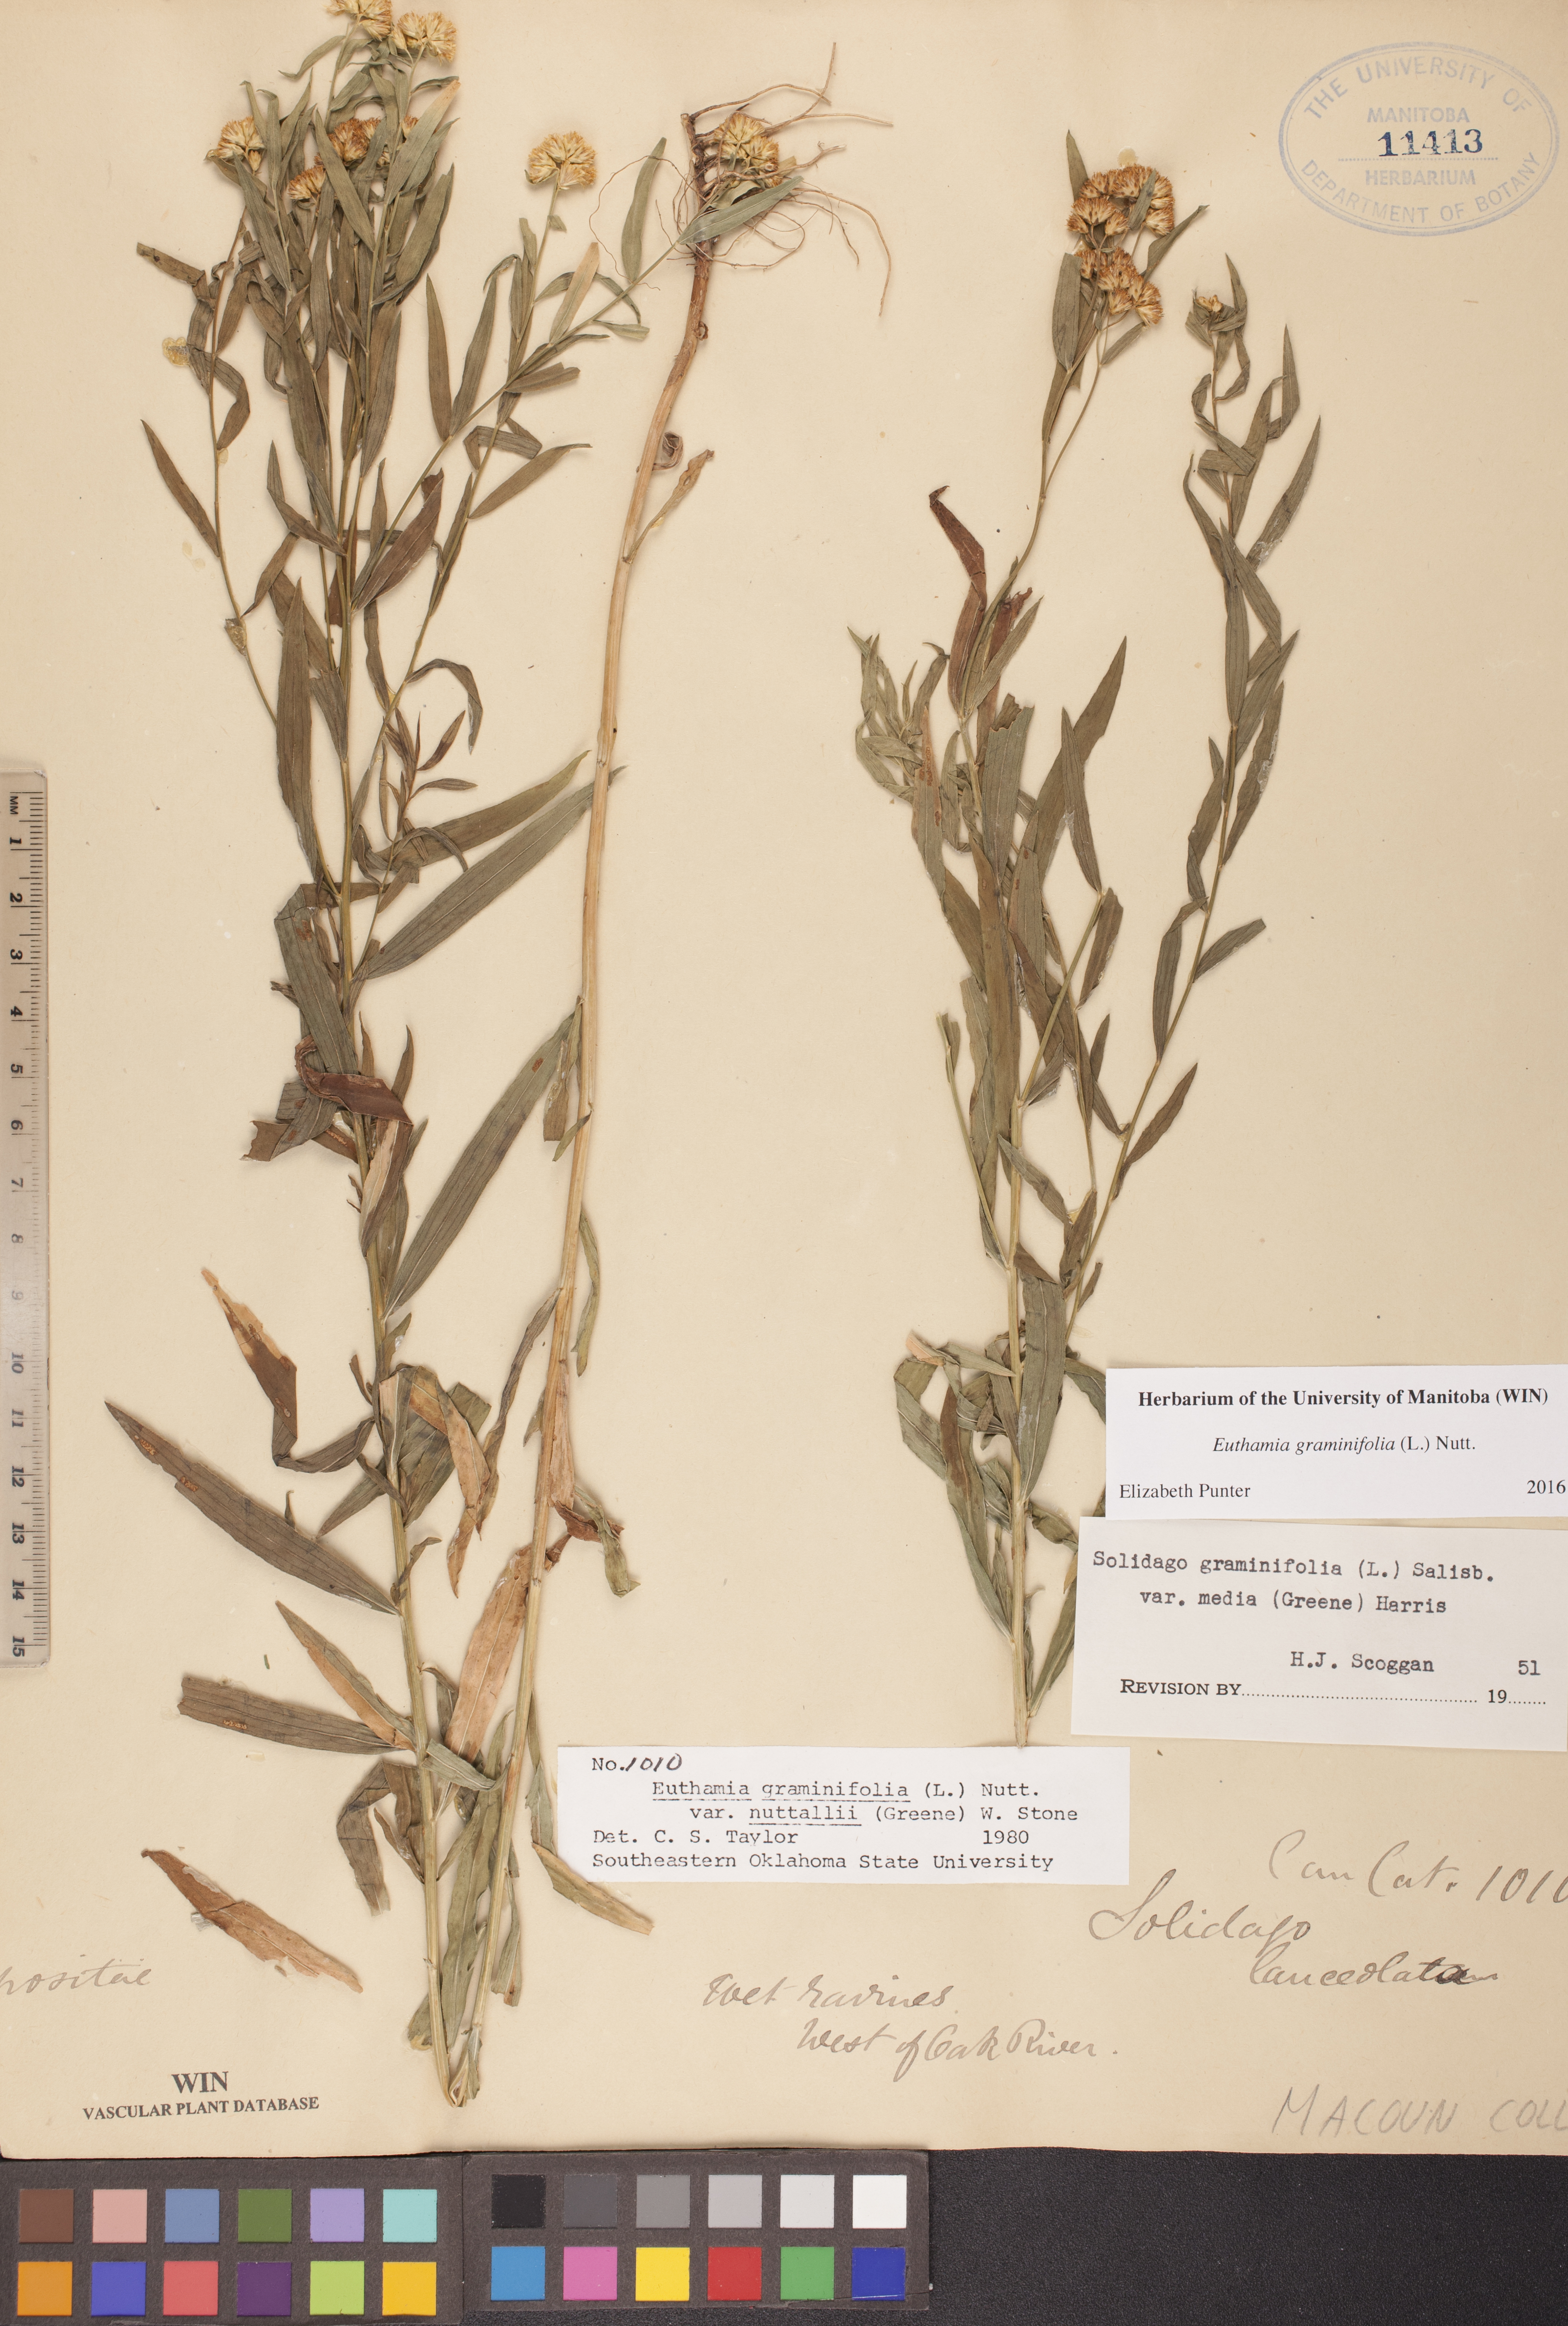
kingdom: Plantae
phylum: Tracheophyta
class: Magnoliopsida
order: Asterales
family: Asteraceae
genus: Euthamia
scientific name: Euthamia graminifolia
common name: Common goldentop
